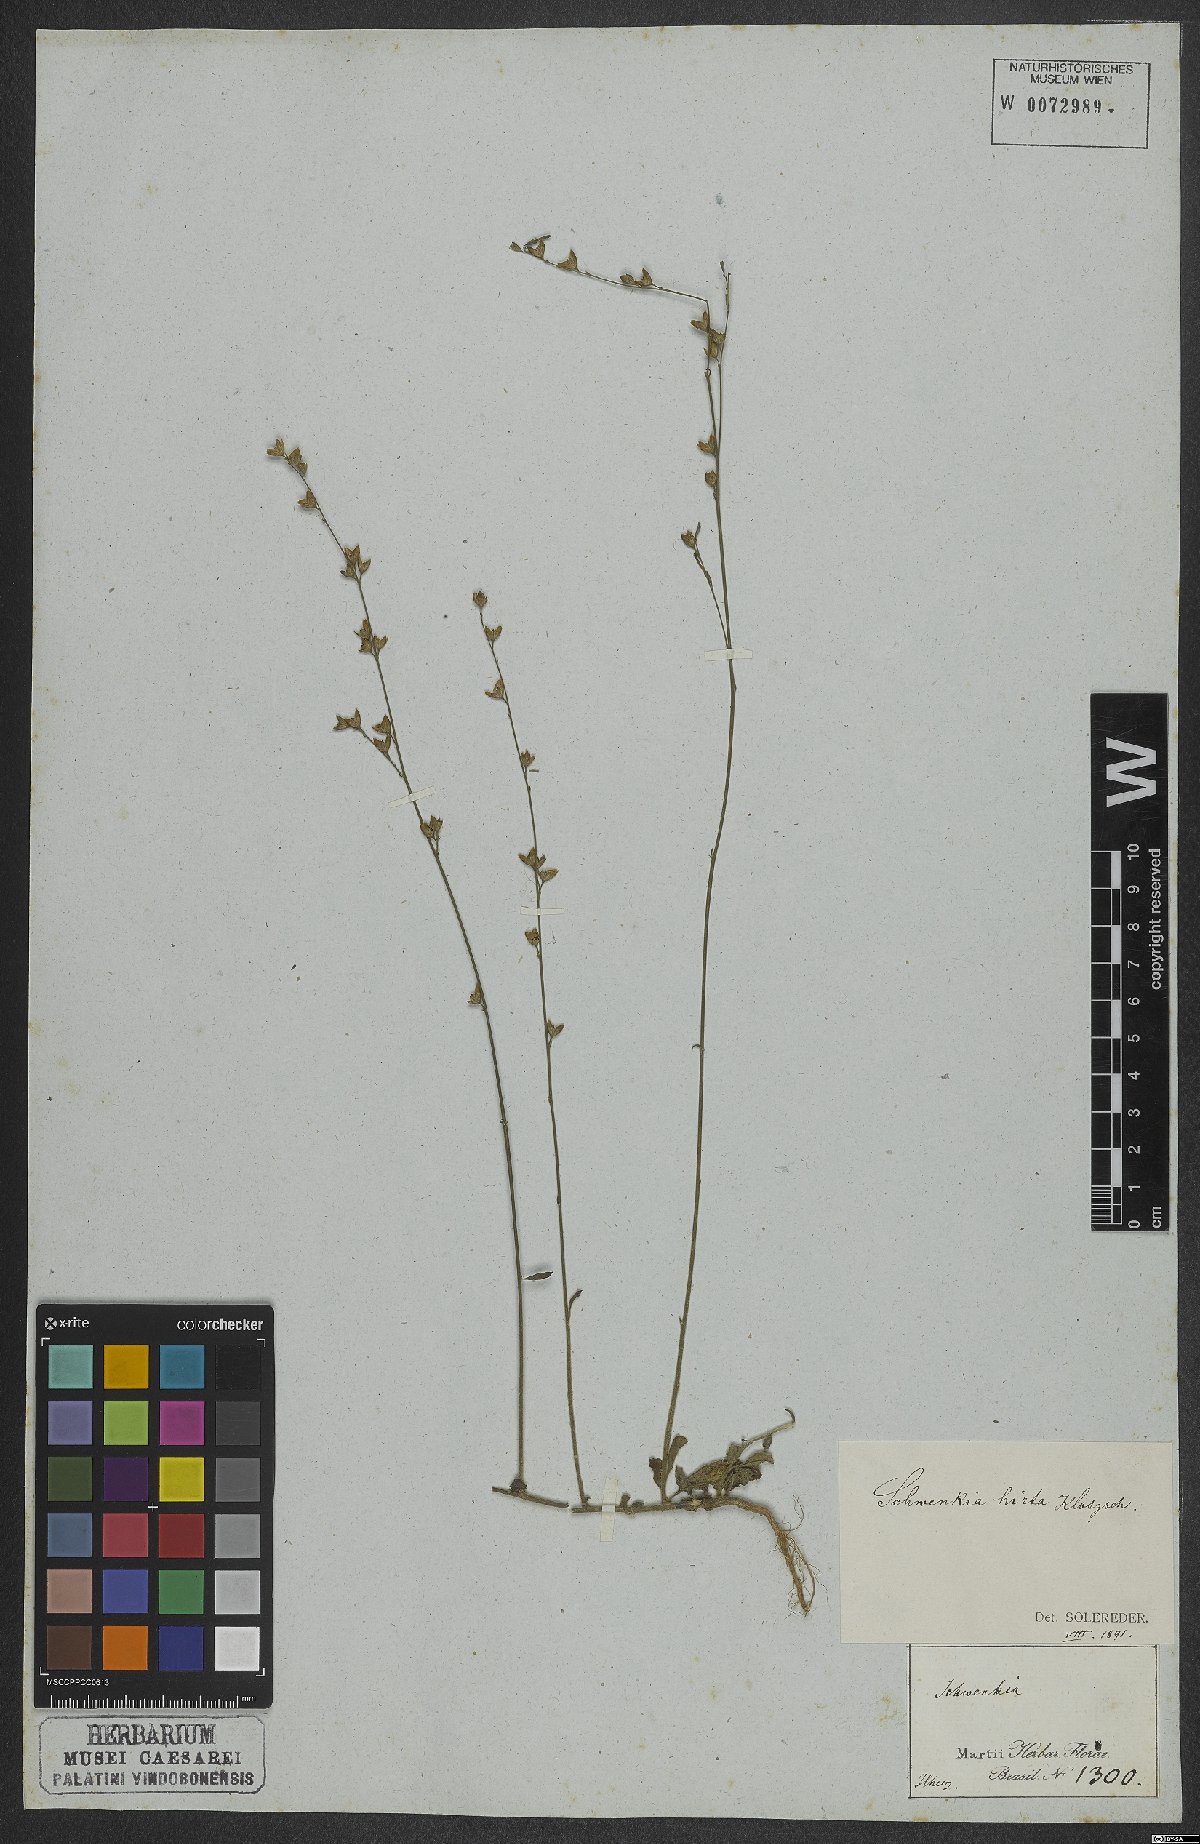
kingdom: Plantae
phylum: Tracheophyta
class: Magnoliopsida
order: Solanales
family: Solanaceae
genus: Schwenckia
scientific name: Schwenckia americana
